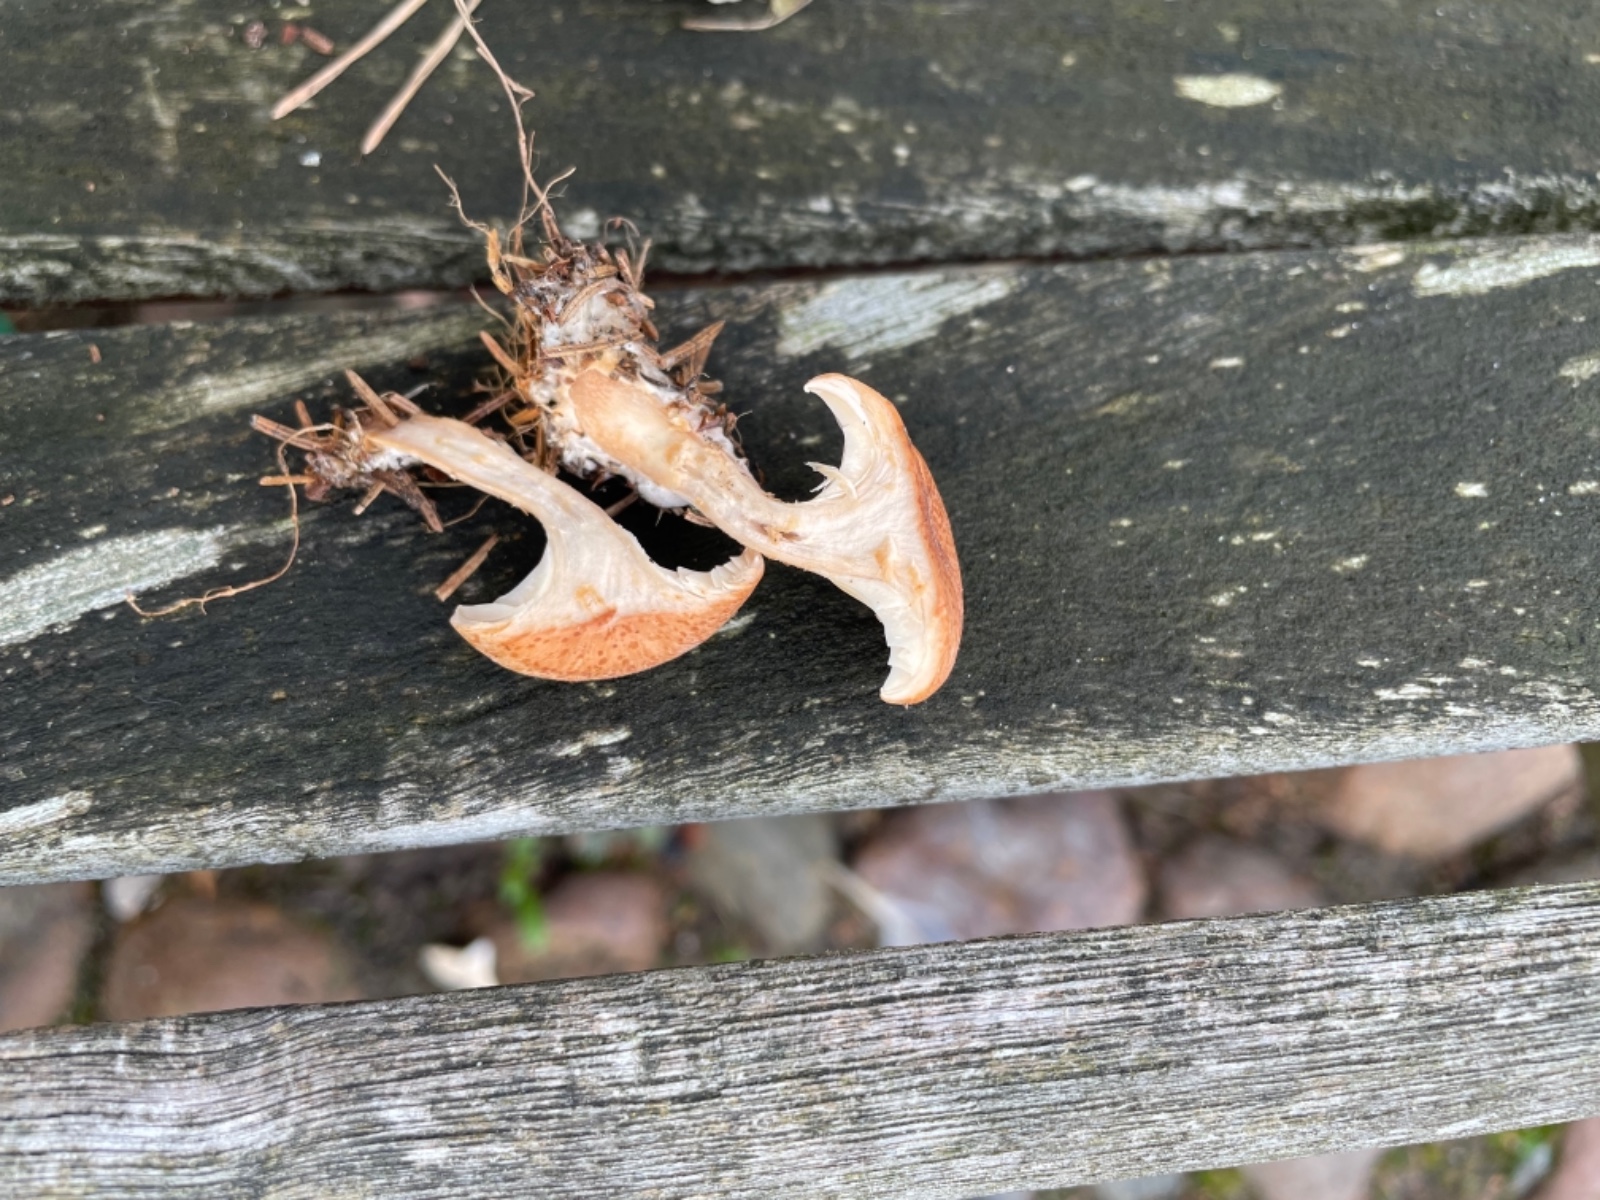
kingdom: Fungi
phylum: Basidiomycota
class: Agaricomycetes
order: Agaricales
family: Tricholomataceae
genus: Paralepista
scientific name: Paralepista gilva
